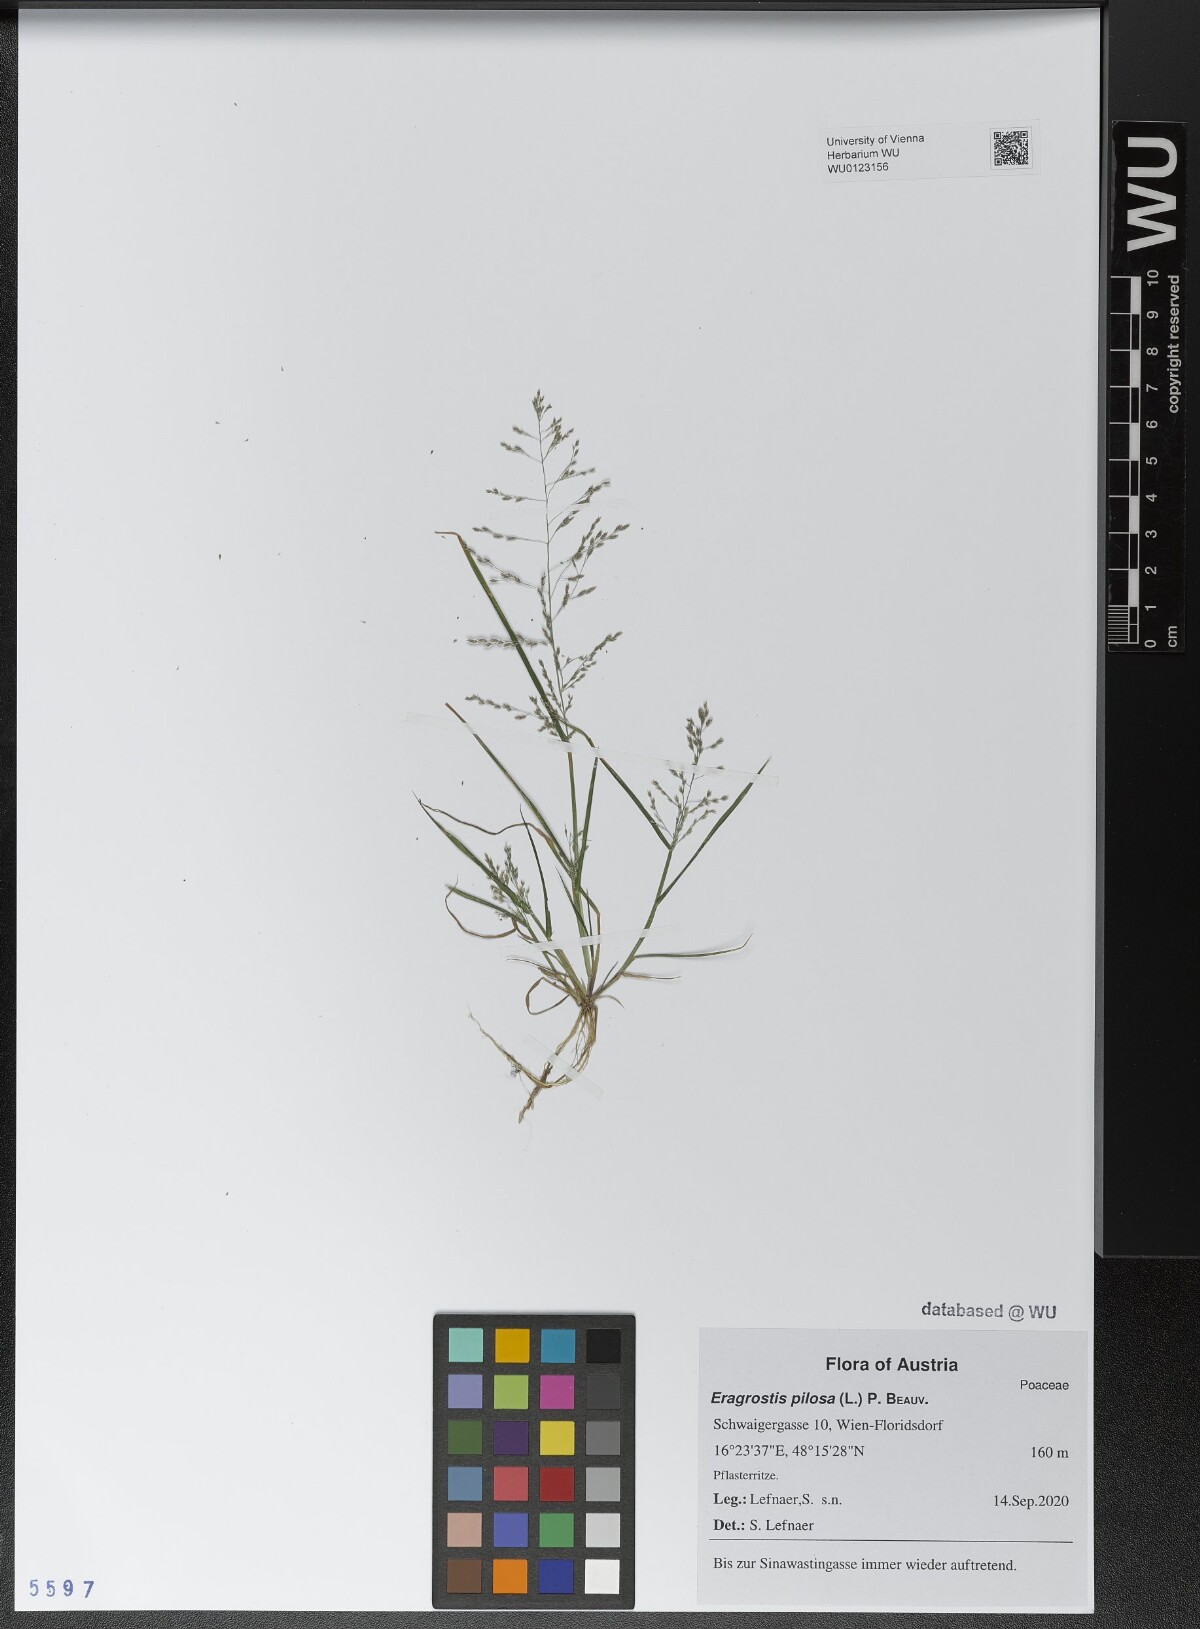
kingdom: Plantae
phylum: Tracheophyta
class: Liliopsida
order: Poales
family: Poaceae
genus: Eragrostis
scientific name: Eragrostis pilosa
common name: Indian lovegrass
